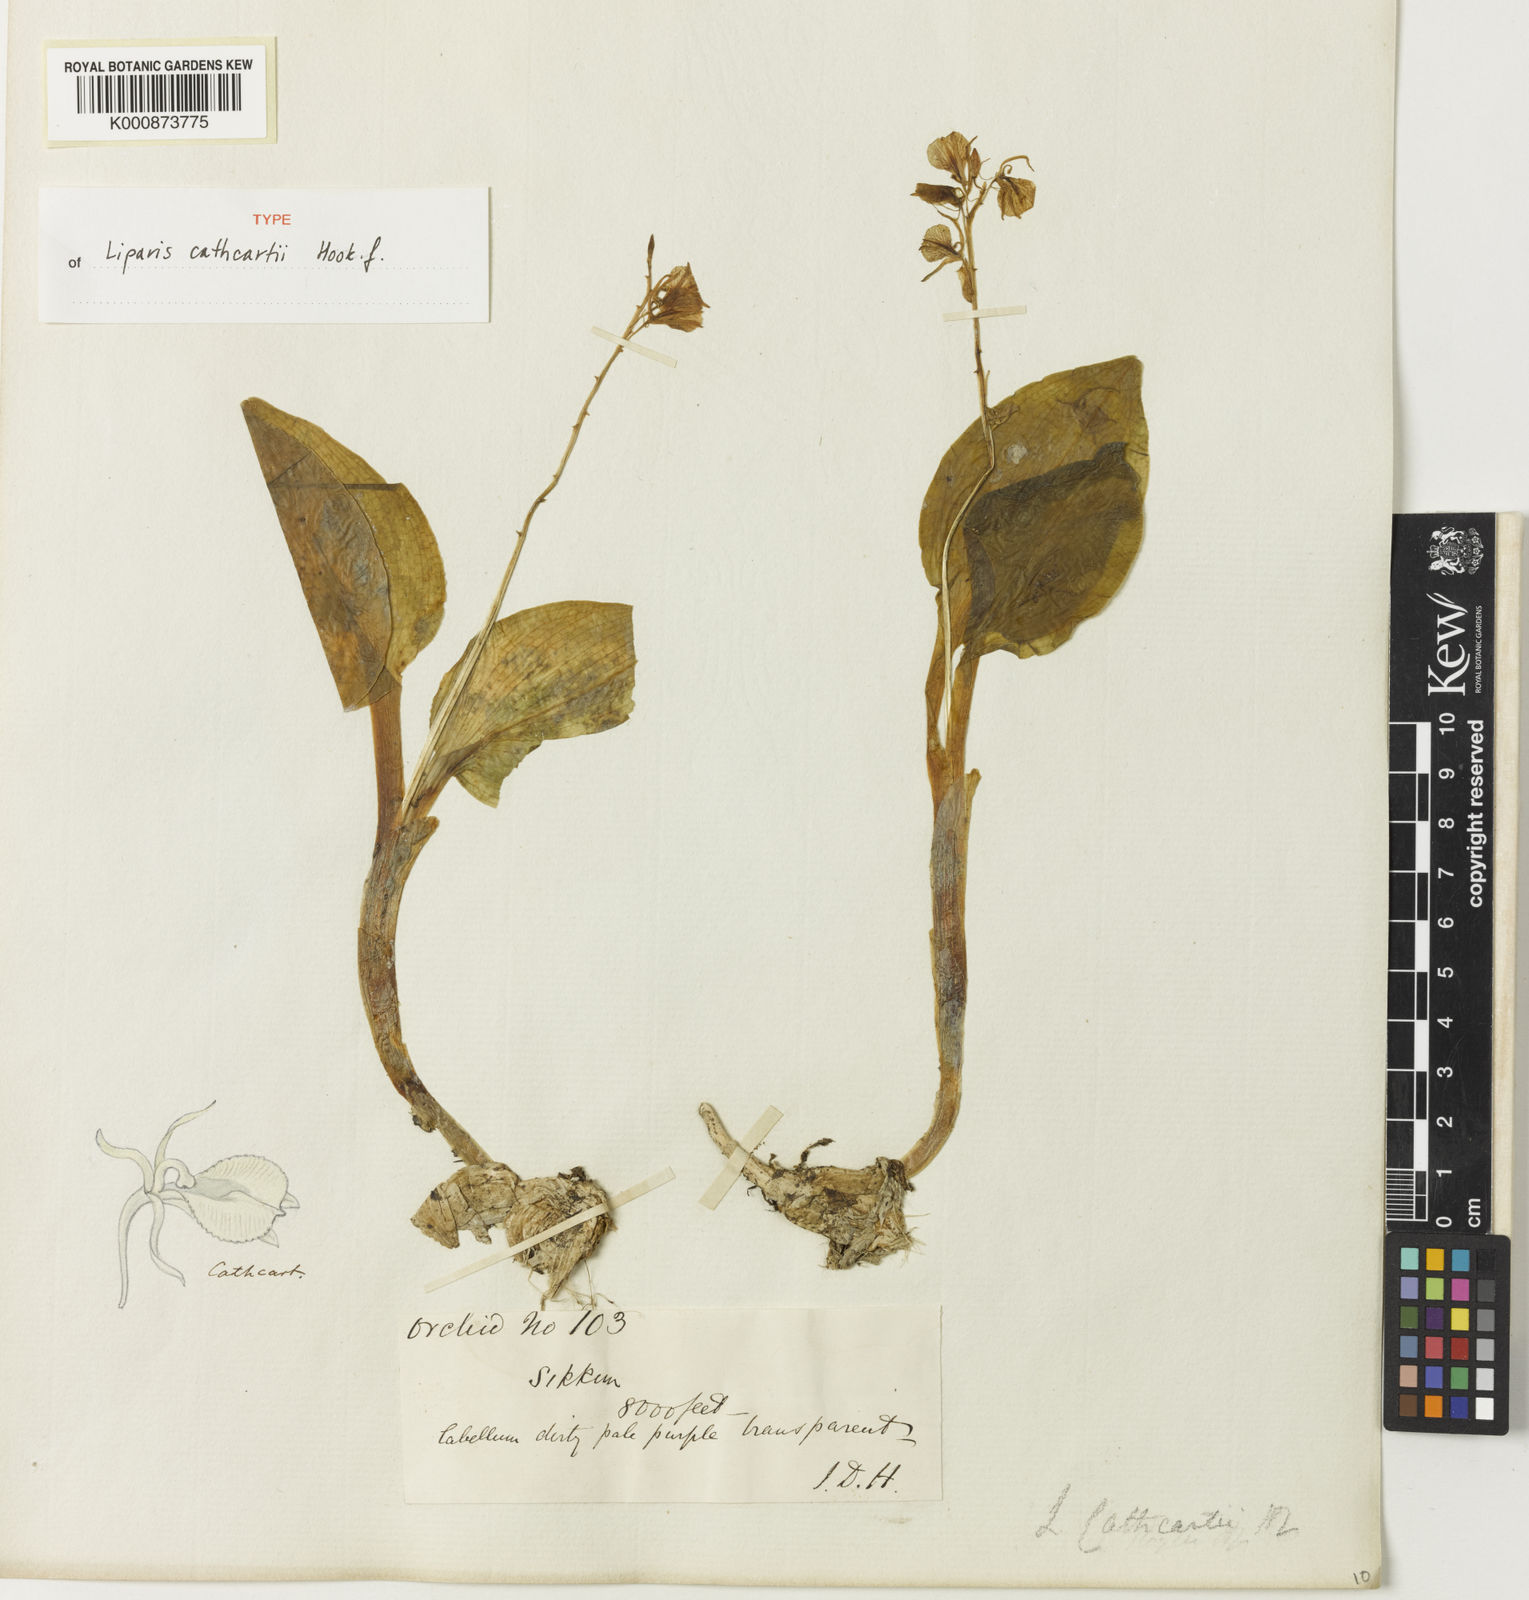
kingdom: Plantae
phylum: Tracheophyta
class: Liliopsida
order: Asparagales
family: Orchidaceae
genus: Liparis
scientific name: Liparis cathcartii
